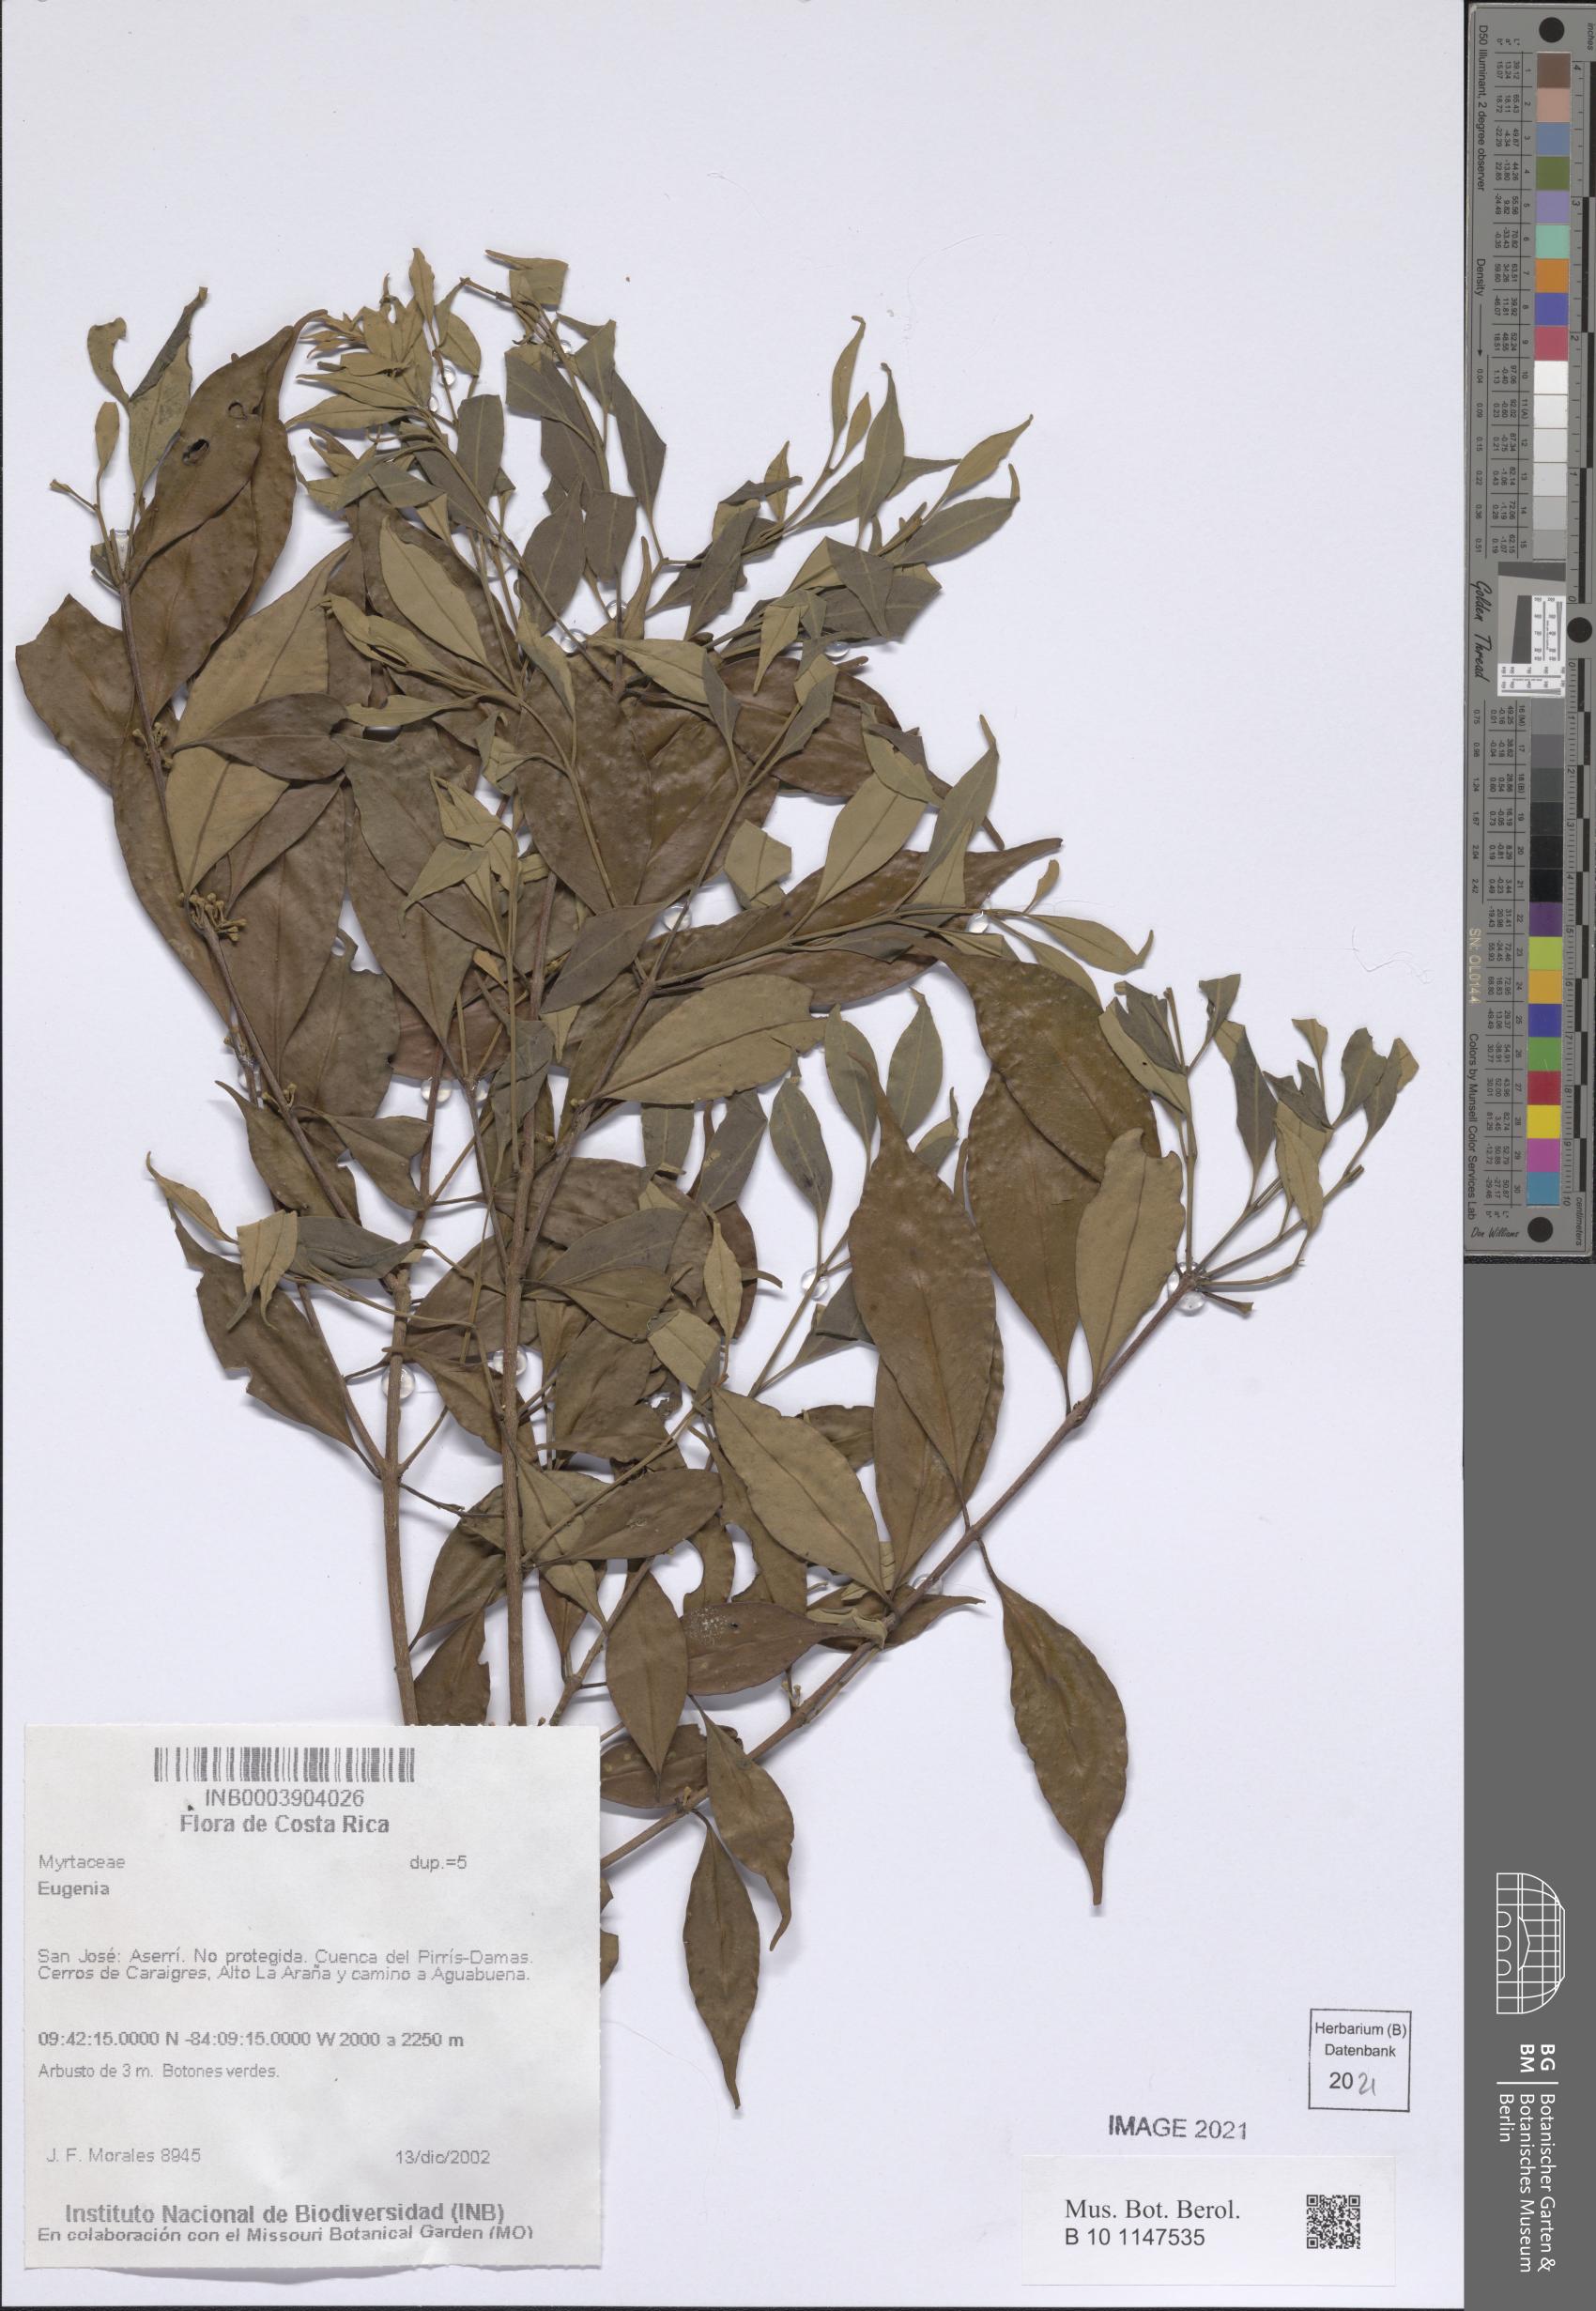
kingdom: Plantae
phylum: Tracheophyta
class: Magnoliopsida
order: Myrtales
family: Myrtaceae
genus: Eugenia
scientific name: Eugenia
